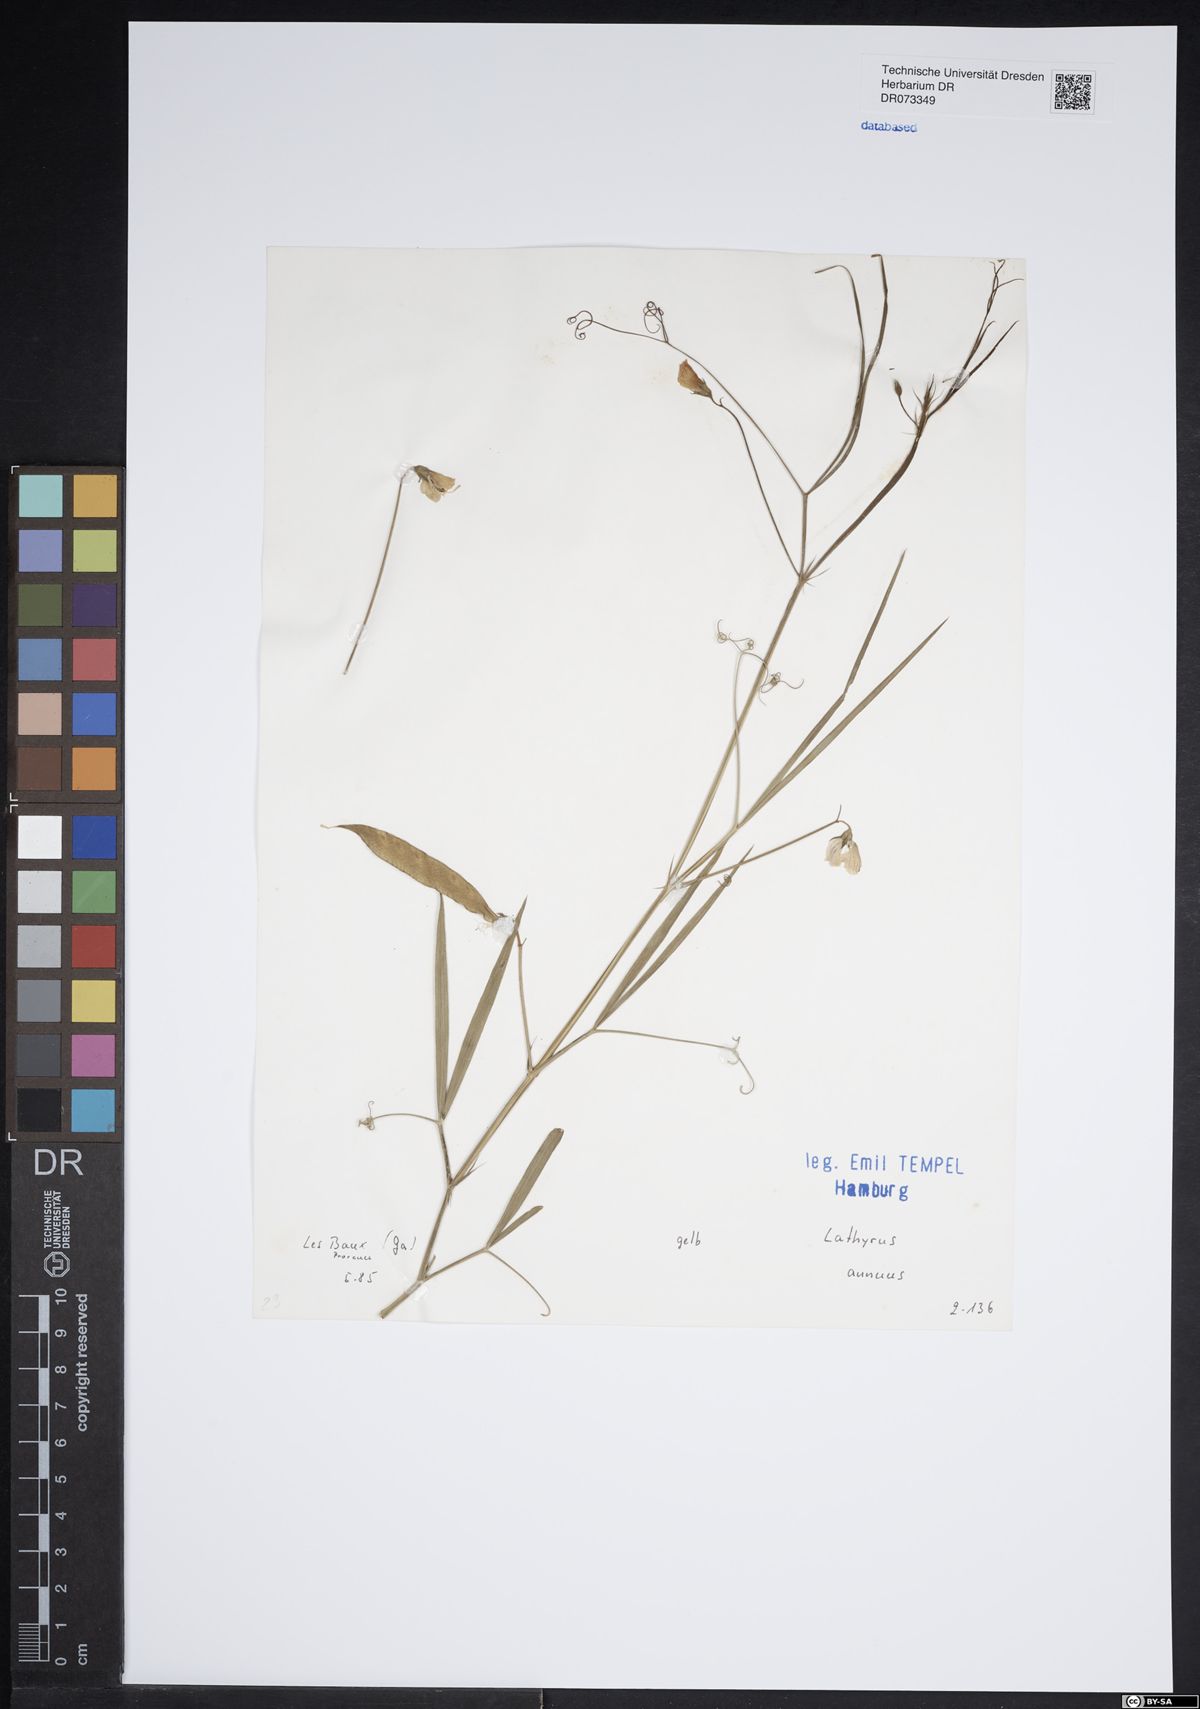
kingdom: Plantae
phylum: Tracheophyta
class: Magnoliopsida
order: Fabales
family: Fabaceae
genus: Lathyrus
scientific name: Lathyrus annuus
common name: Fodder pea
